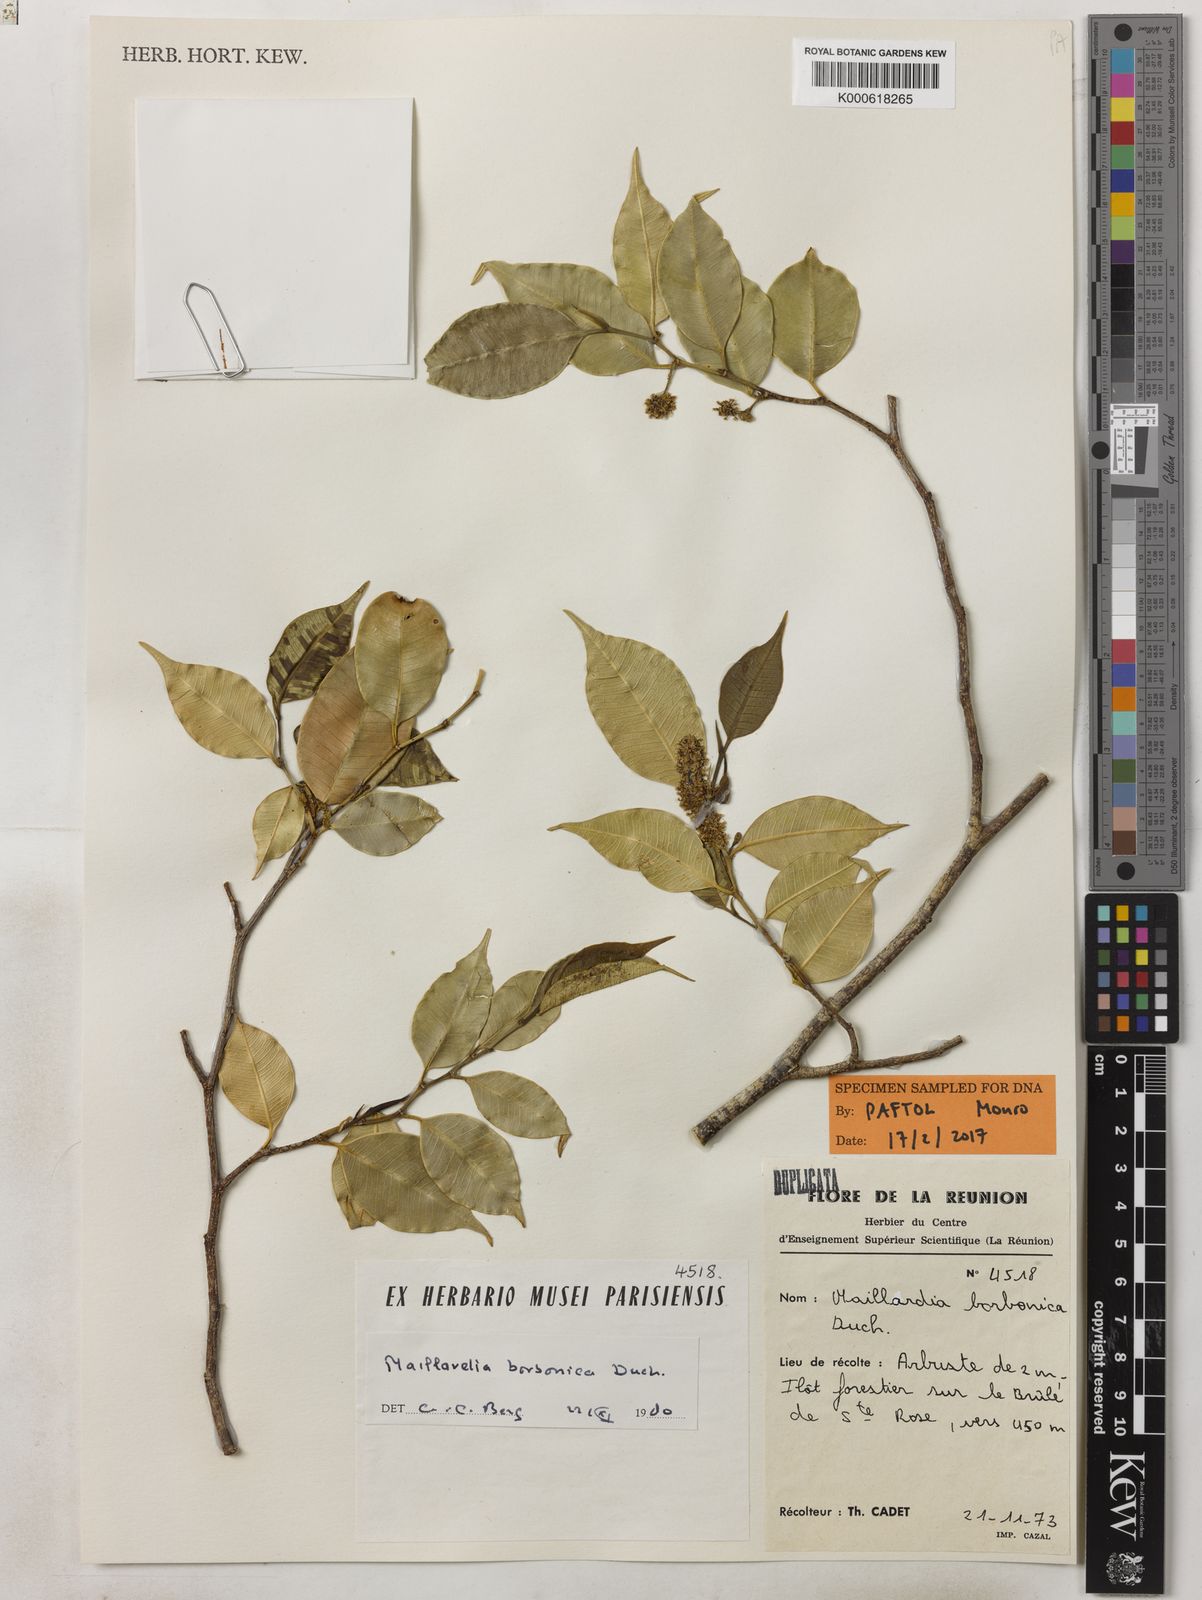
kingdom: Plantae
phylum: Tracheophyta
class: Magnoliopsida
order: Rosales
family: Moraceae
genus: Maillardia
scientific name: Maillardia borbonica
